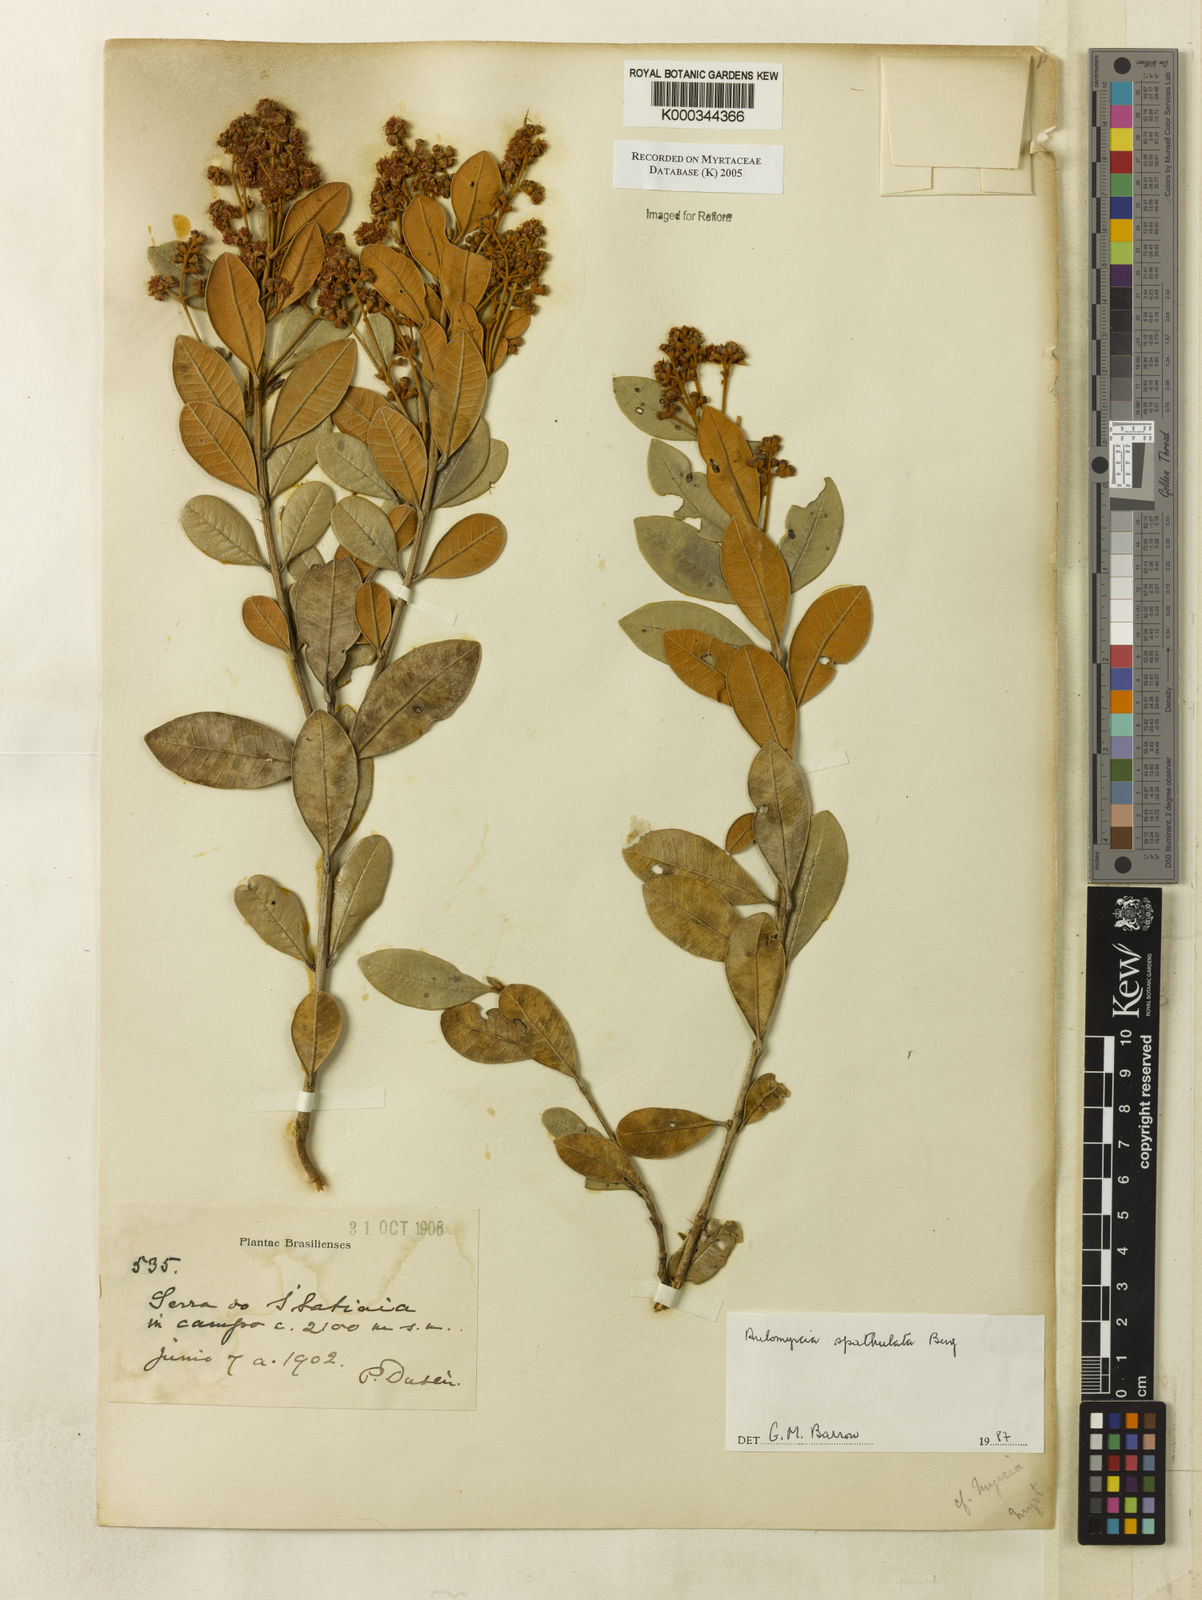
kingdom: Plantae
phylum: Tracheophyta
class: Magnoliopsida
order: Myrtales
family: Myrtaceae
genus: Myrcia
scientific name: Myrcia tomentosa
